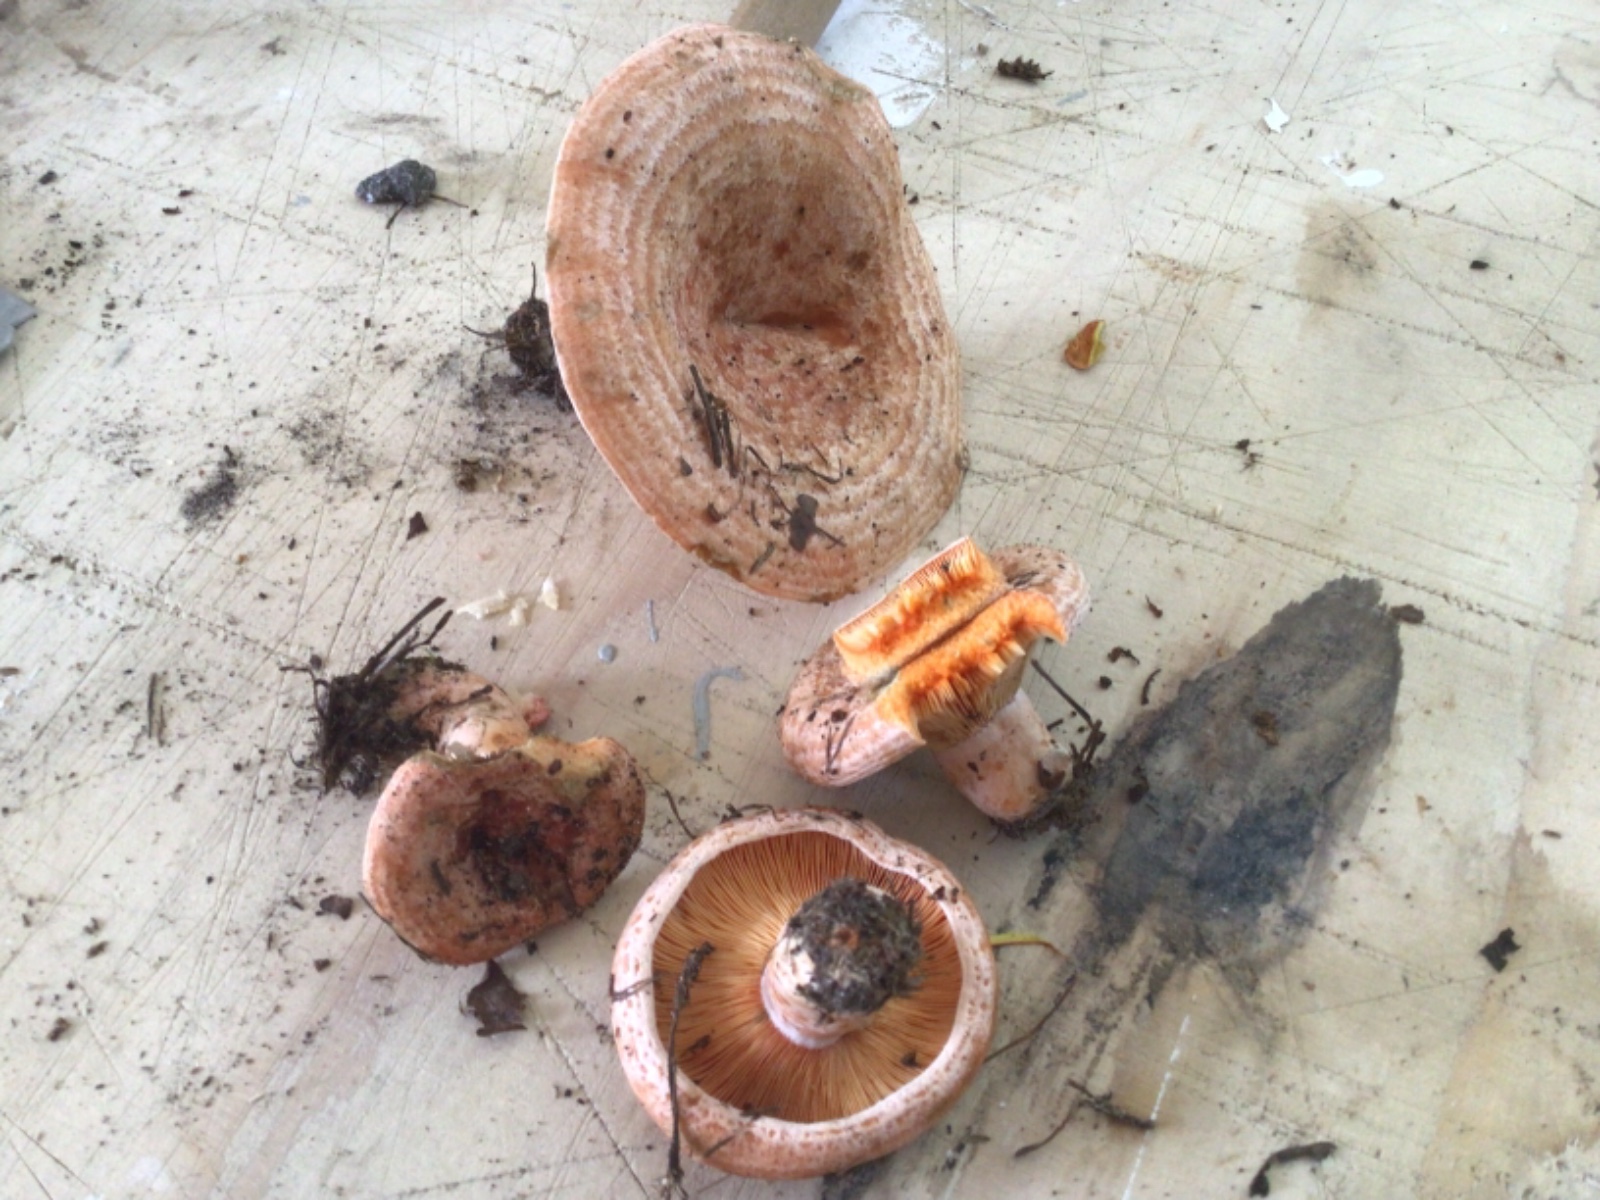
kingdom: Fungi
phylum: Basidiomycota
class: Agaricomycetes
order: Russulales
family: Russulaceae
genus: Lactarius
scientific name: Lactarius deliciosus
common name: velsmagende mælkehat
